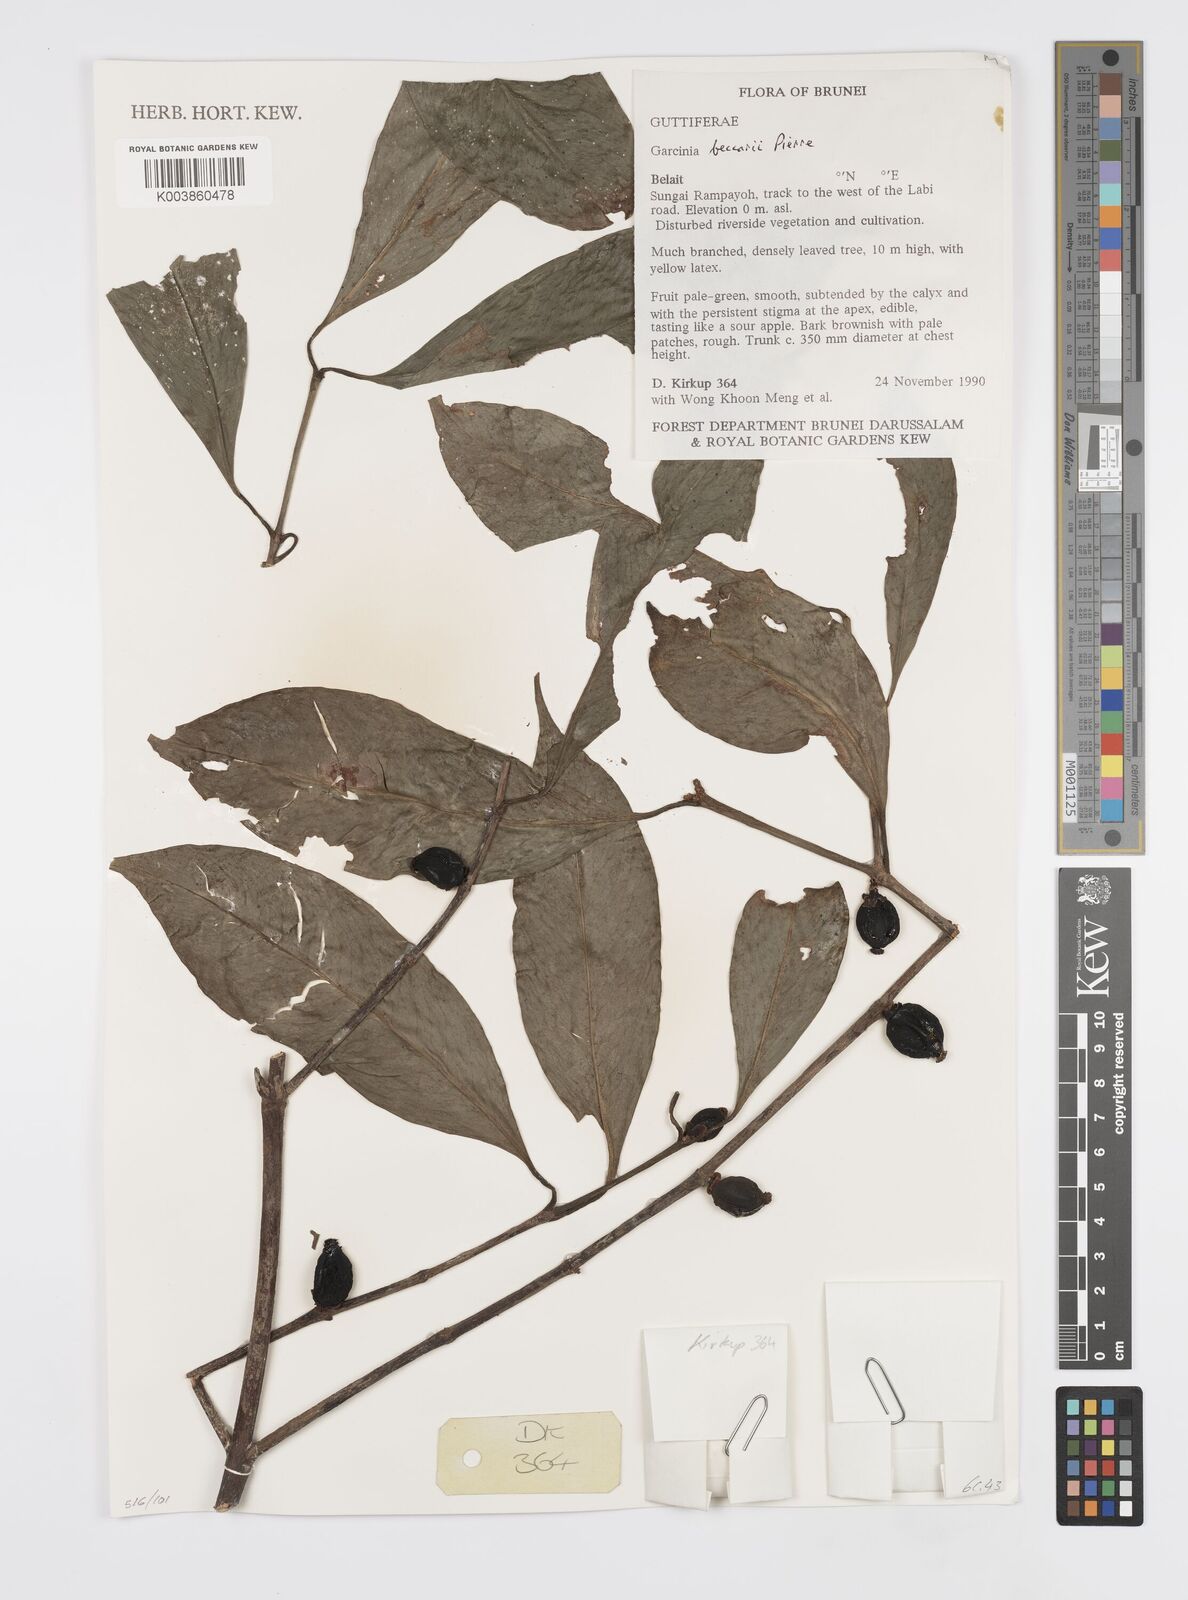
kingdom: Plantae
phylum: Tracheophyta
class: Magnoliopsida
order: Malpighiales
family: Clusiaceae
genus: Garcinia
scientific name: Garcinia beccarii
